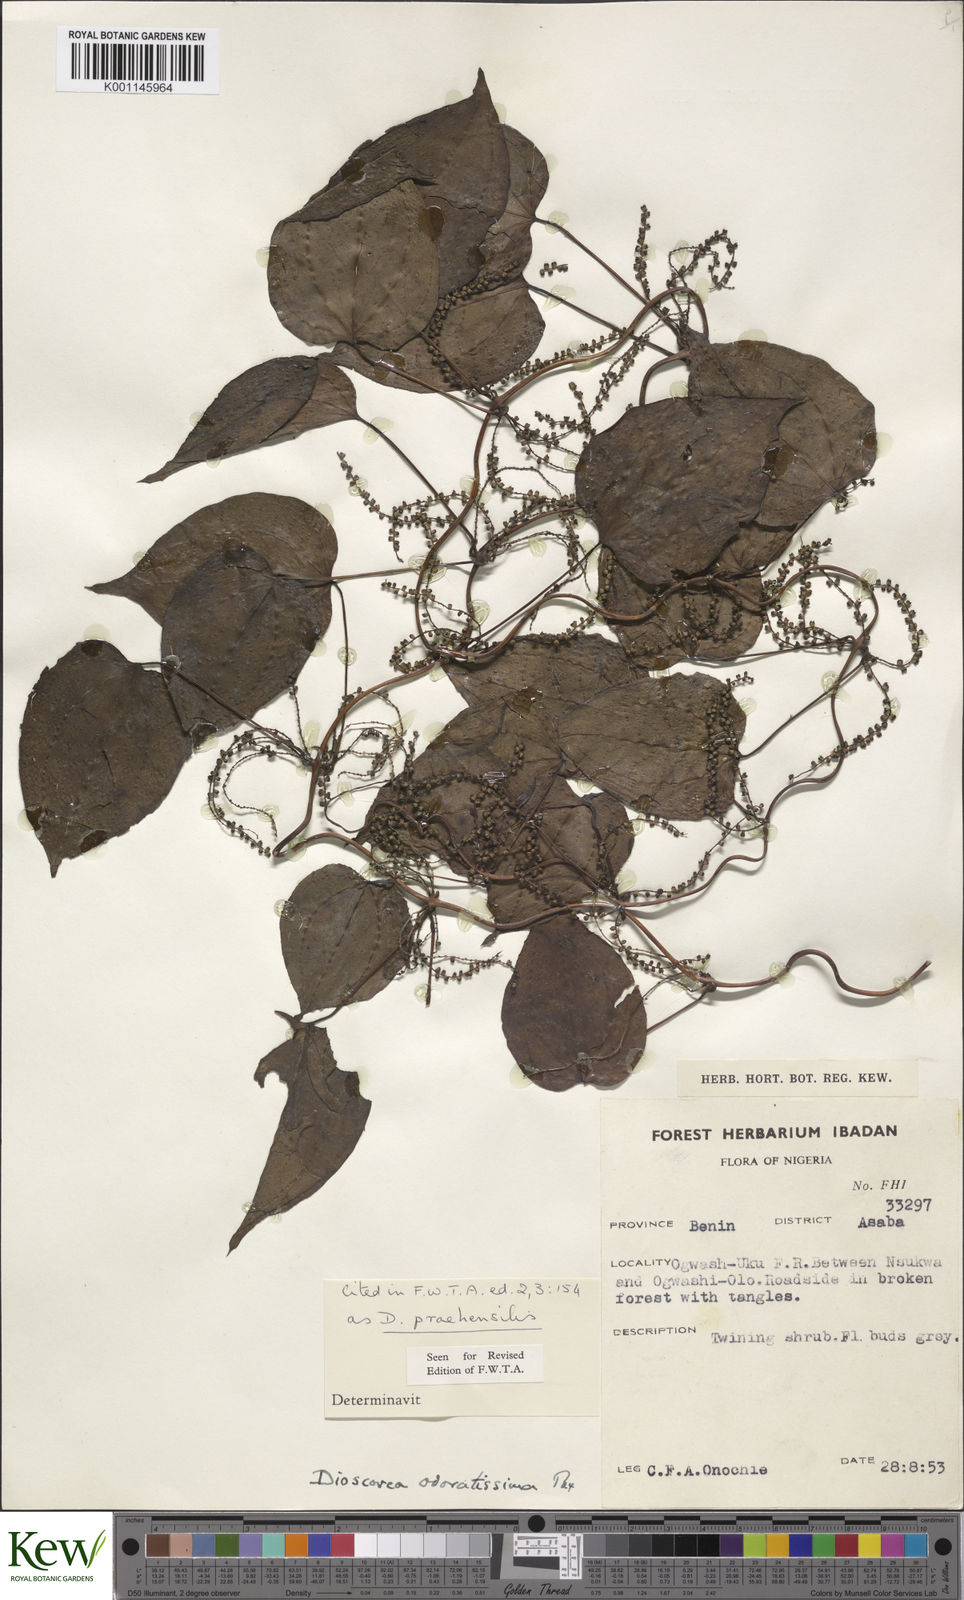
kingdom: Plantae
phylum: Tracheophyta
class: Liliopsida
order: Dioscoreales
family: Dioscoreaceae
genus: Dioscorea
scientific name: Dioscorea praehensilis
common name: Bush yam
